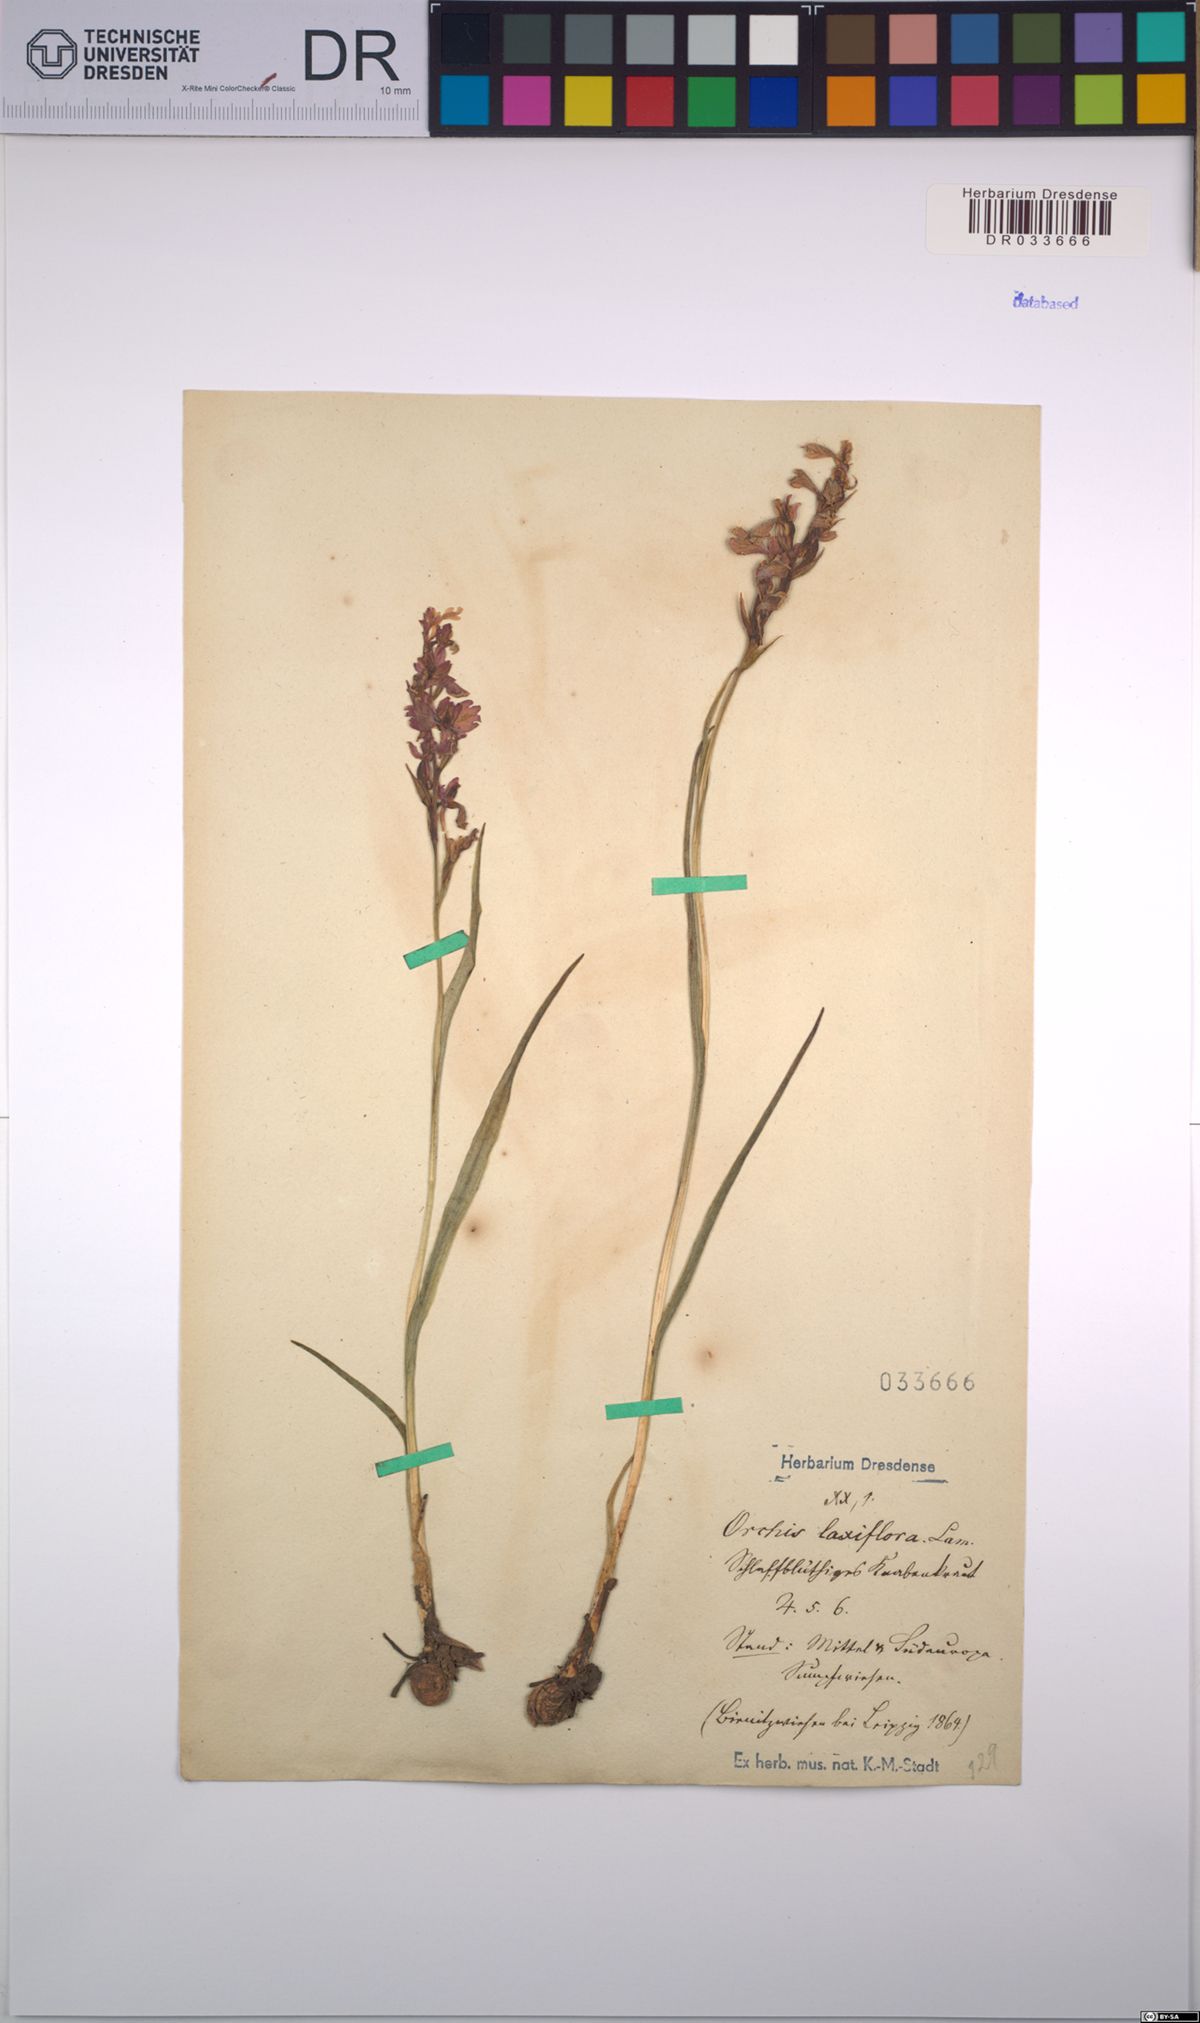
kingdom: Plantae
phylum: Tracheophyta
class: Liliopsida
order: Asparagales
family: Orchidaceae
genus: Anacamptis
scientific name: Anacamptis palustris
